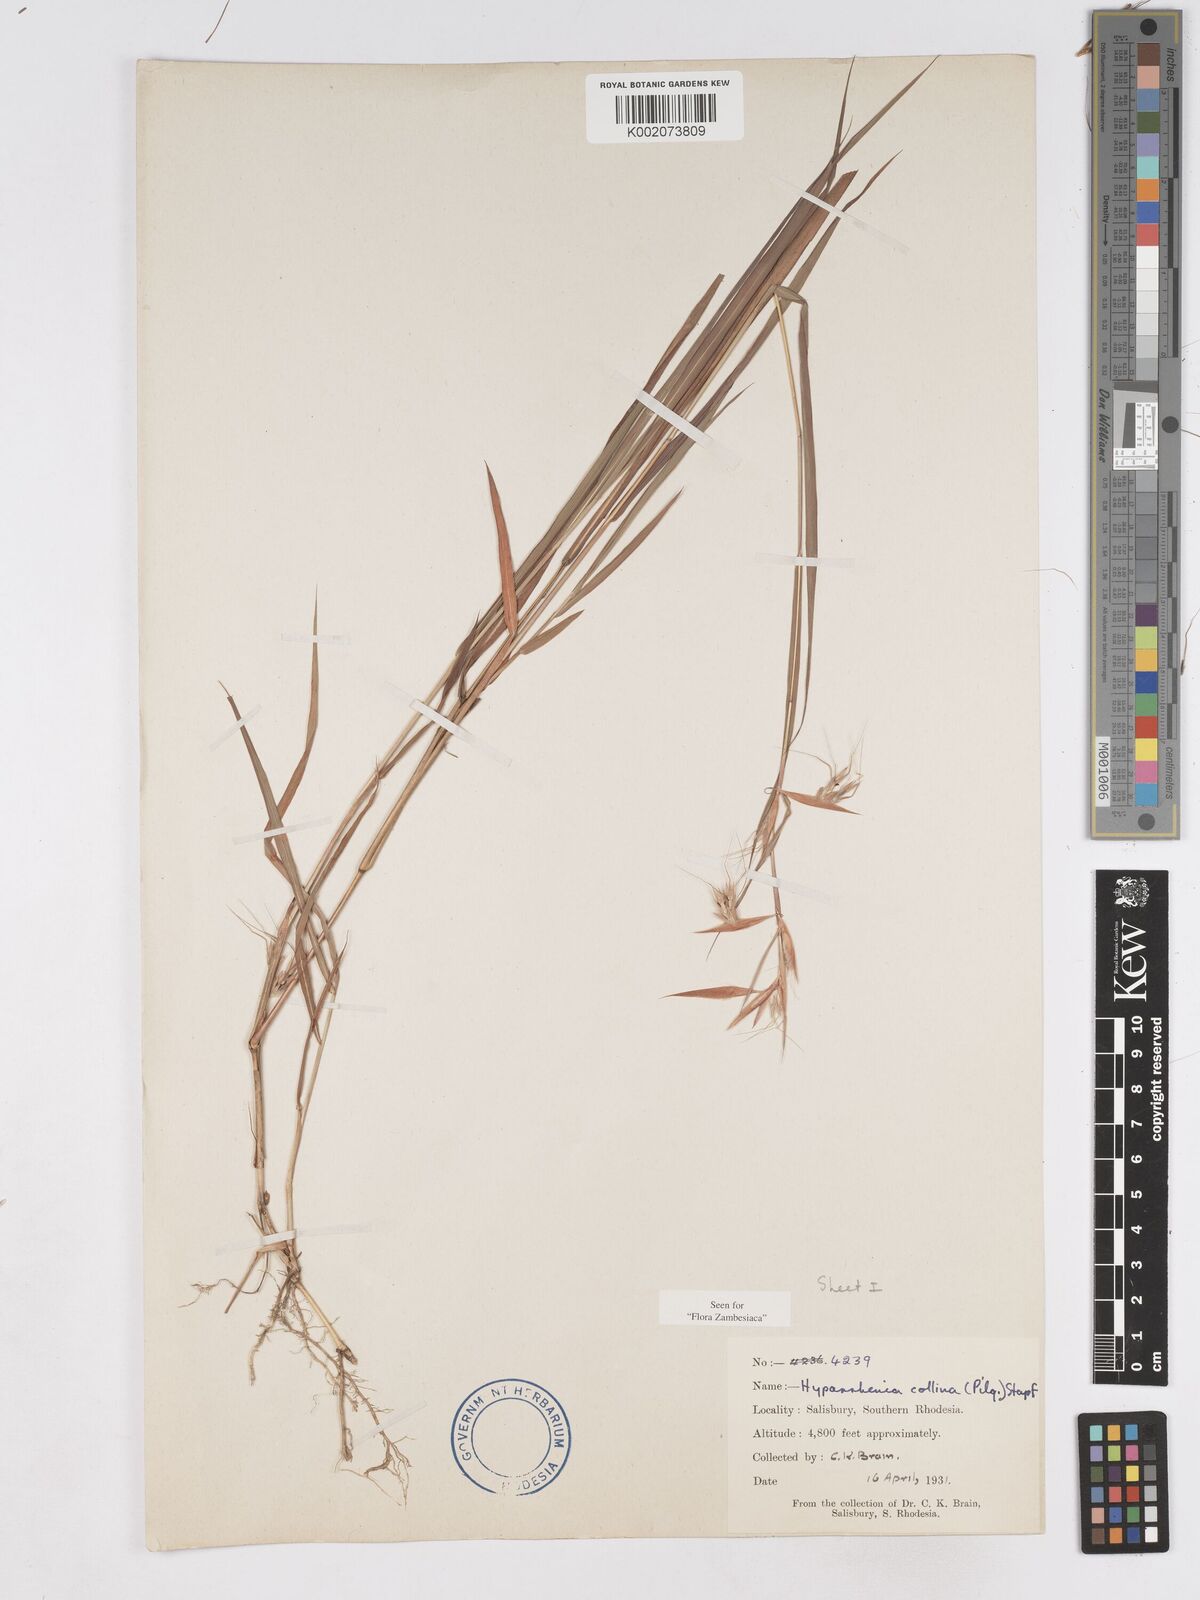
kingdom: Plantae
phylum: Tracheophyta
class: Liliopsida
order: Poales
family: Poaceae
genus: Hyparrhenia
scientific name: Hyparrhenia collina
